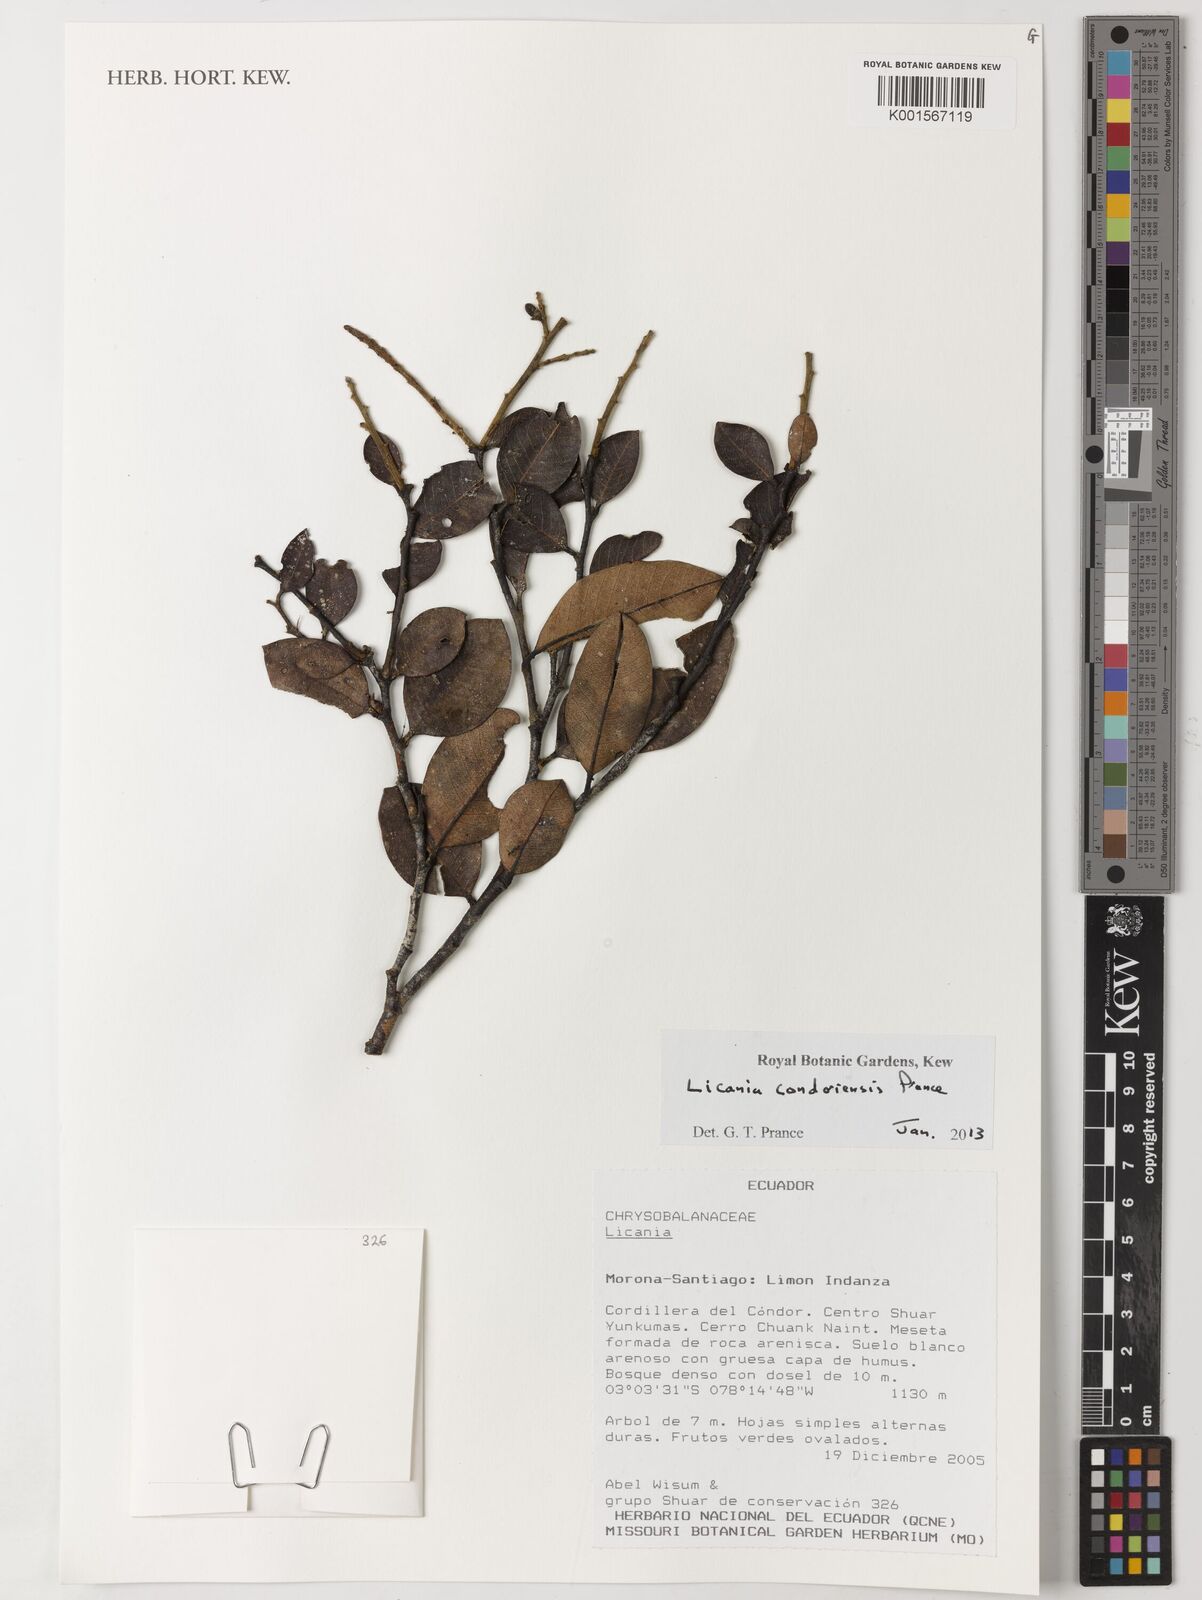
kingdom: Plantae
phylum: Tracheophyta
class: Magnoliopsida
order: Malpighiales
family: Chrysobalanaceae
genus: Licania
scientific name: Licania condoriensis
